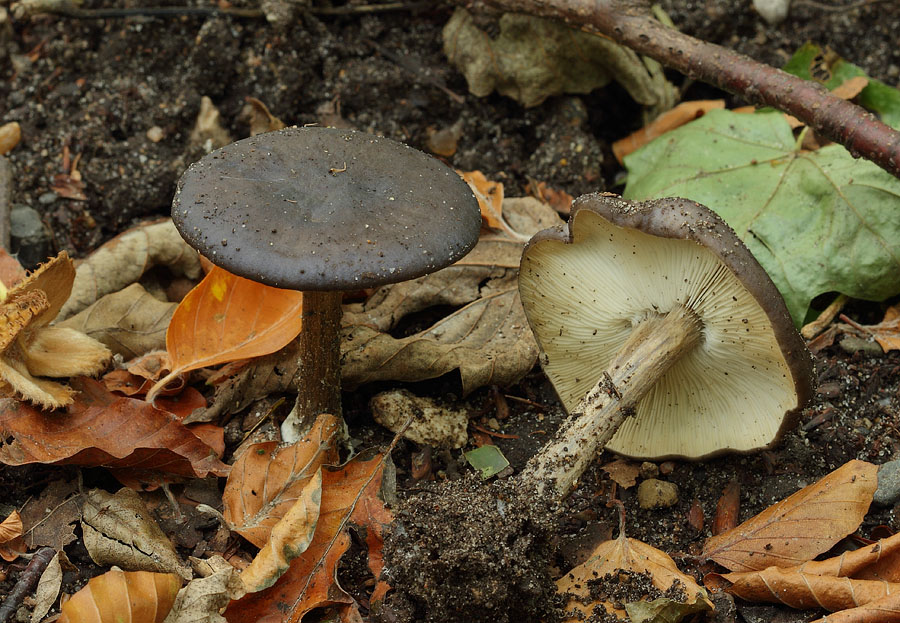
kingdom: Fungi
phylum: Basidiomycota
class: Agaricomycetes
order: Agaricales
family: Tricholomataceae
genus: Melanoleuca
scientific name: Melanoleuca polioleuca
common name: almindelig munkehat
